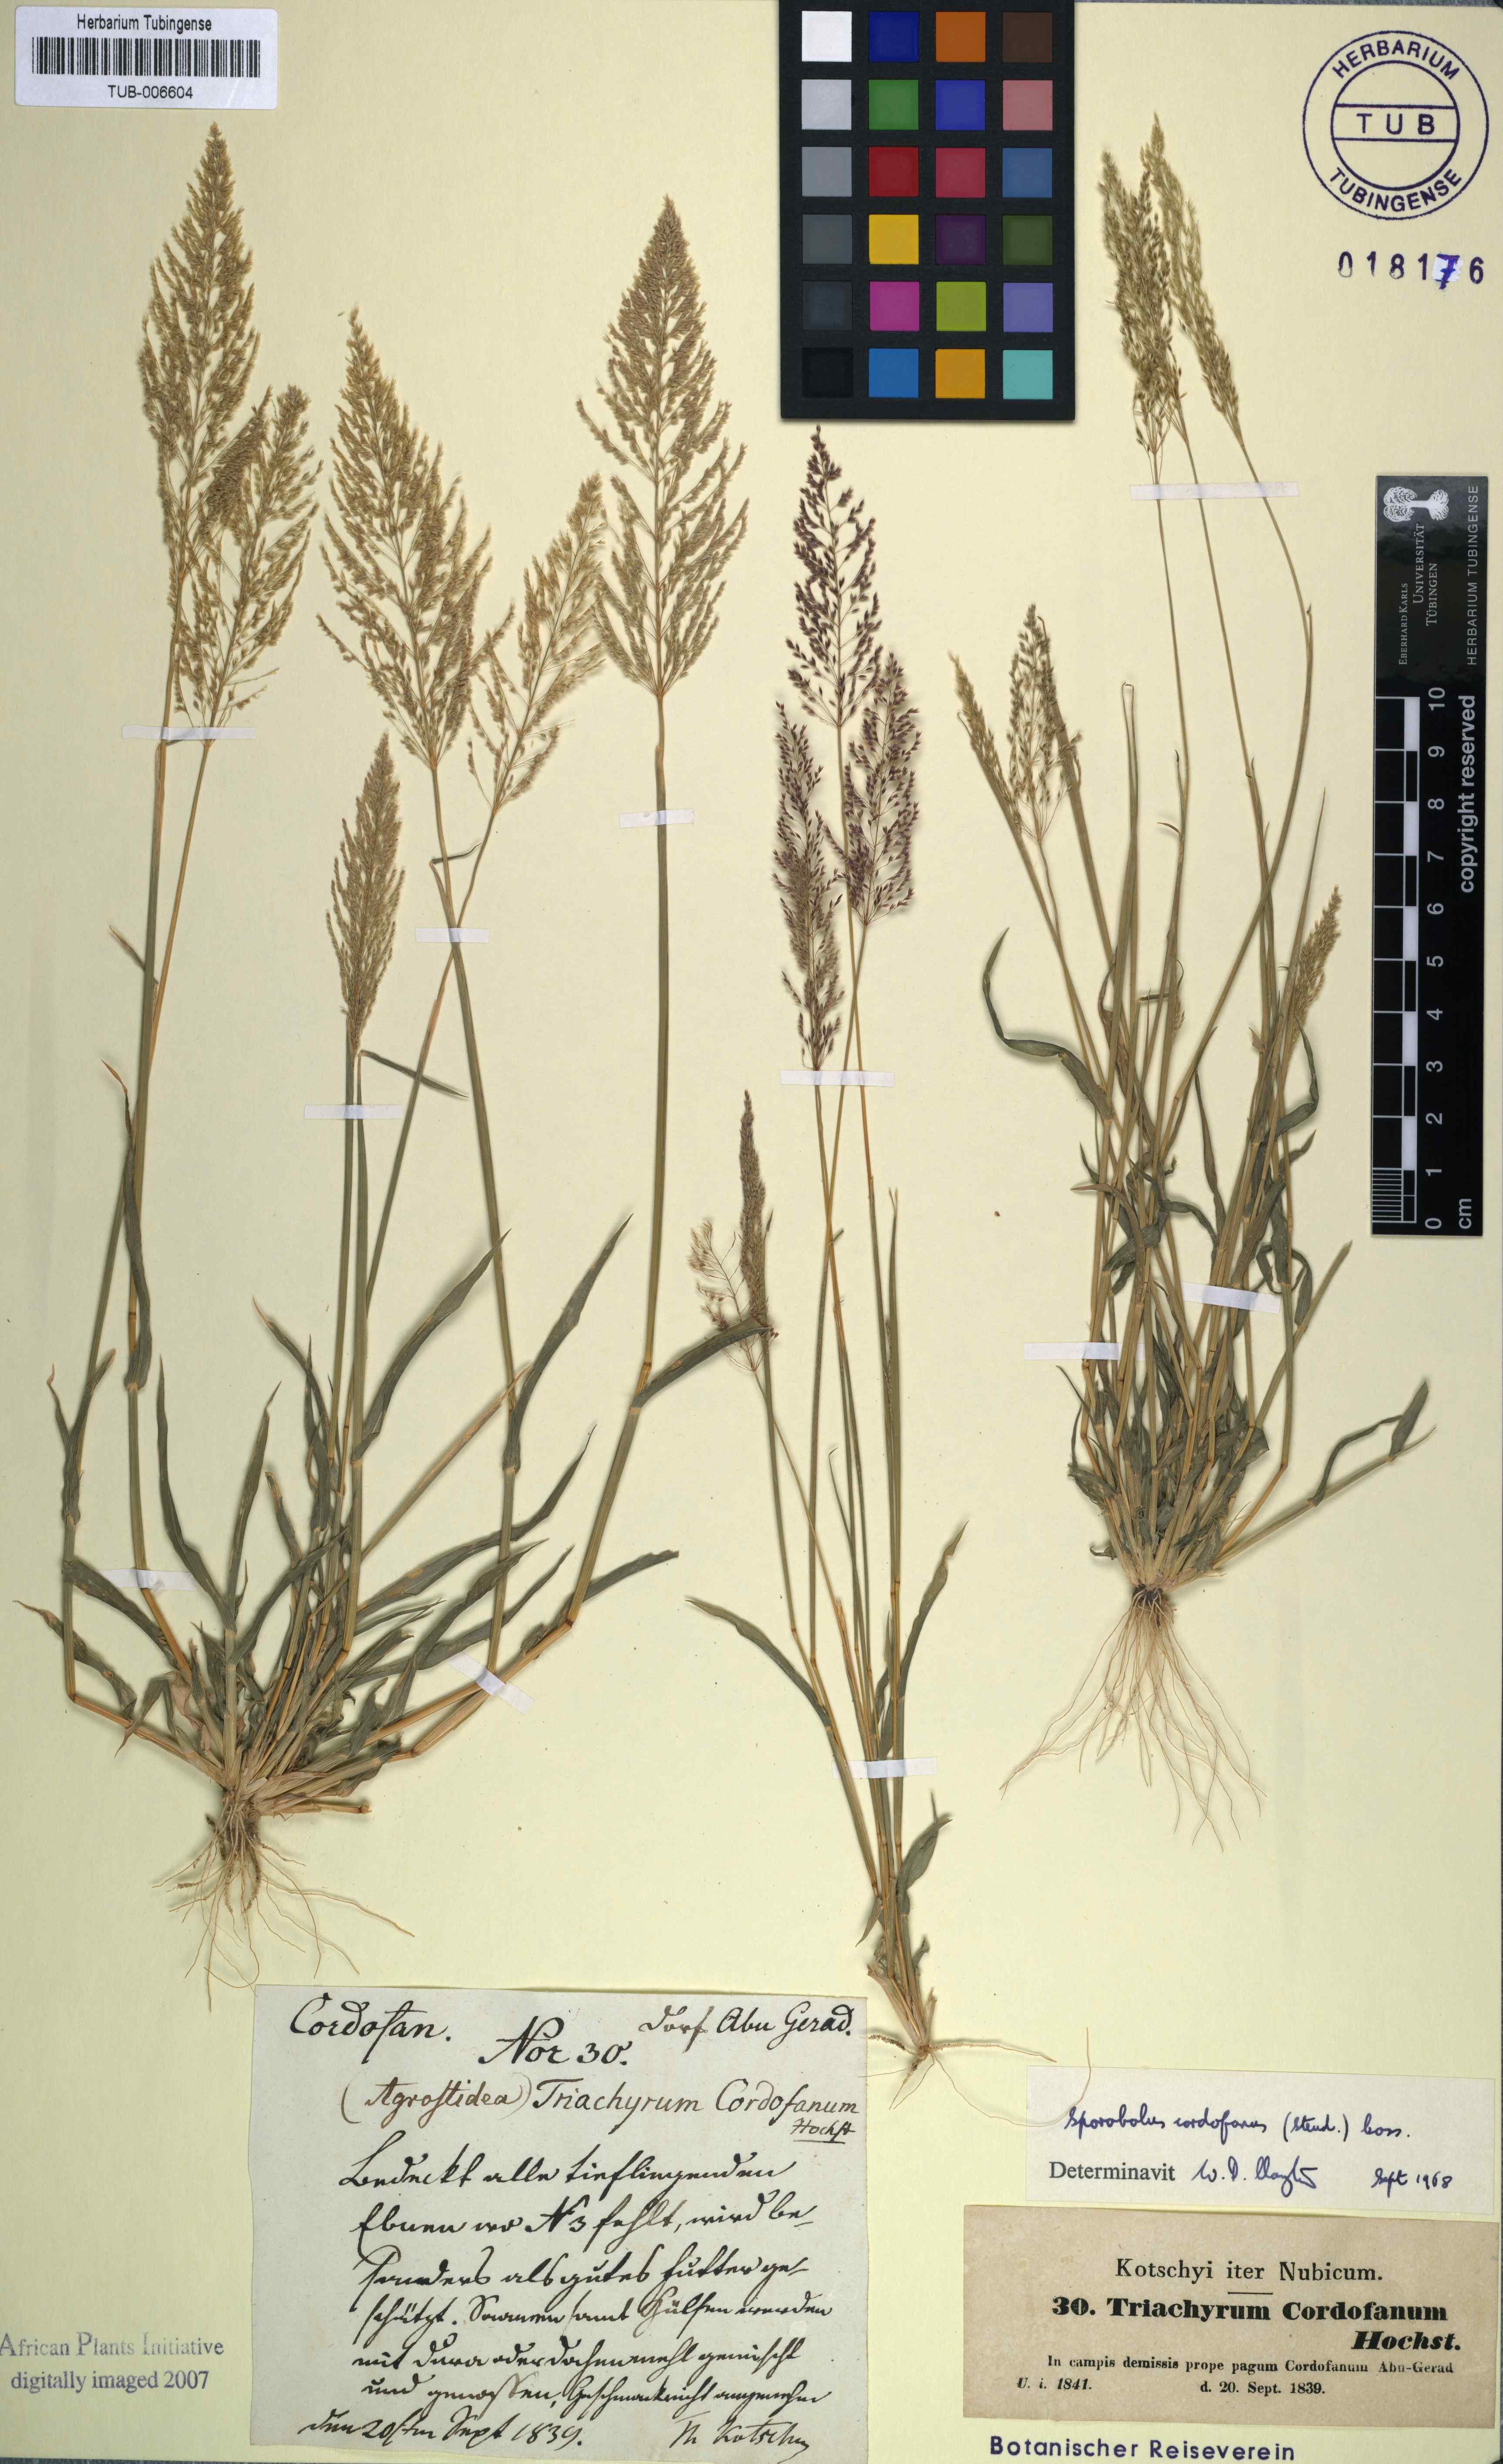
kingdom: Plantae
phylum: Tracheophyta
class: Liliopsida
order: Poales
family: Poaceae
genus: Sporobolus
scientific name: Sporobolus cordofanus
